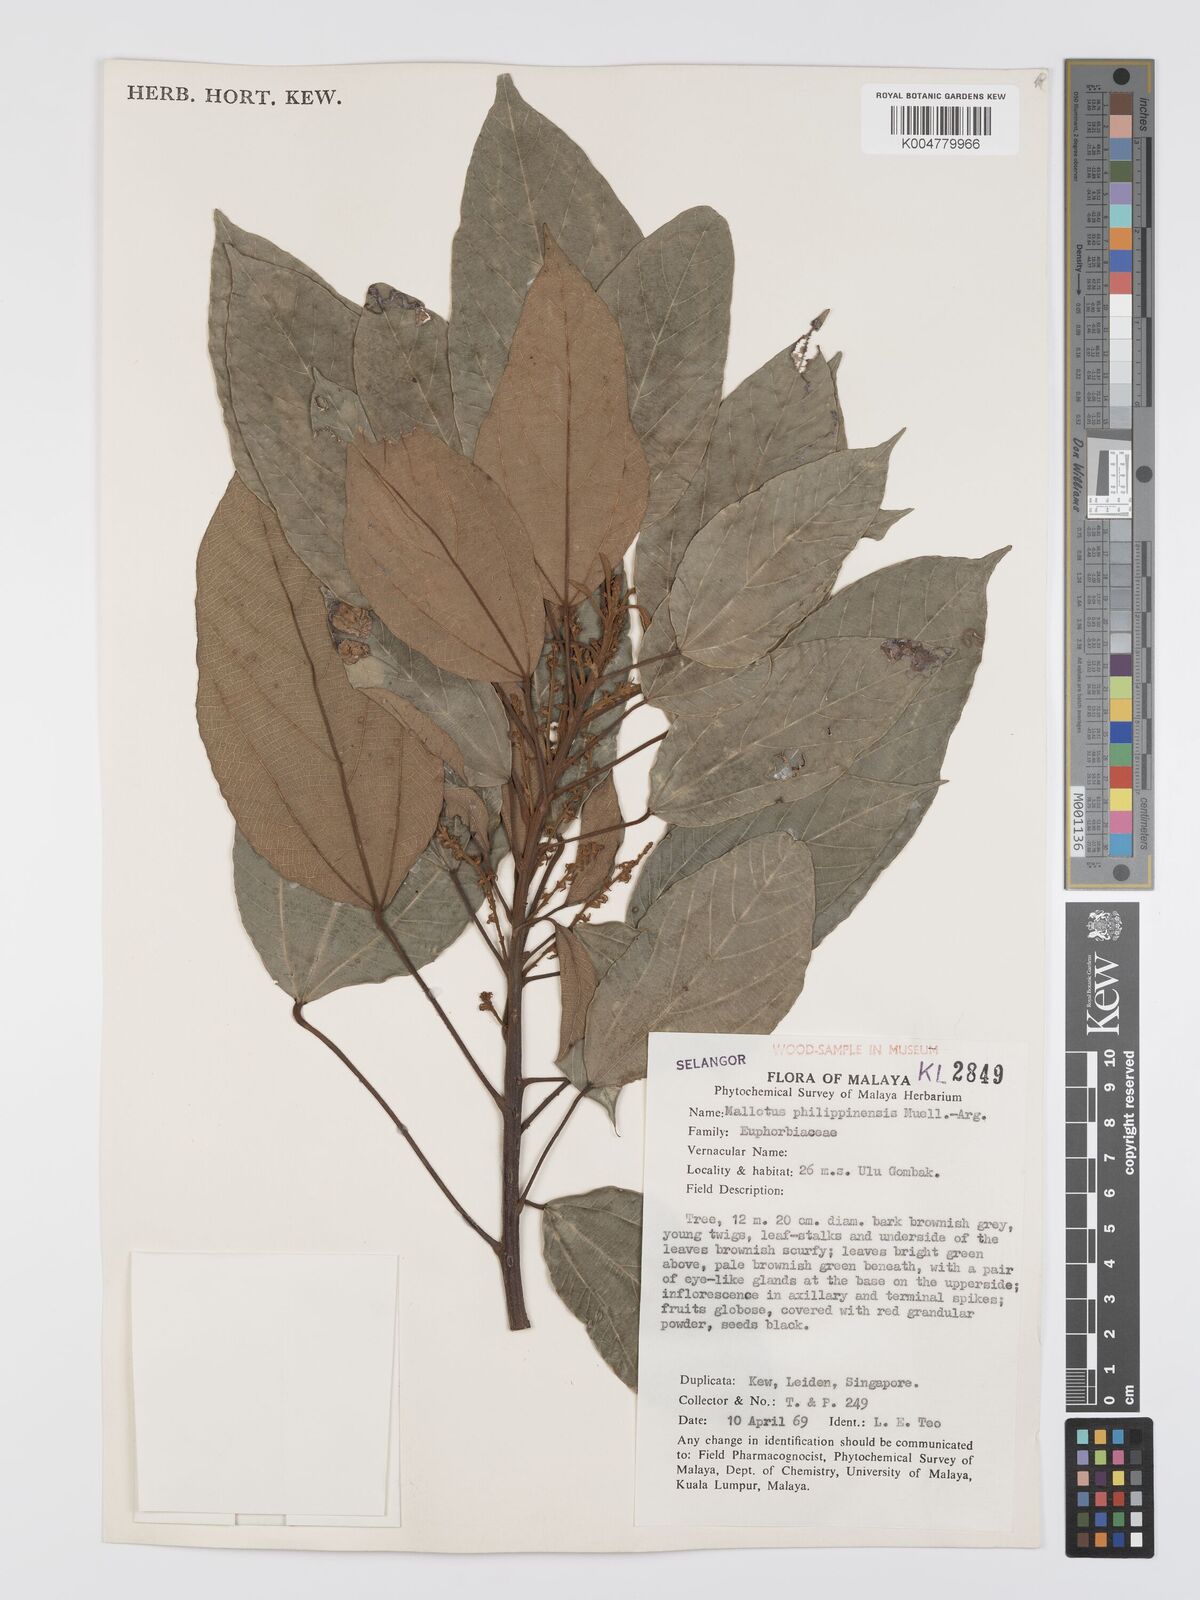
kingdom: Plantae
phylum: Tracheophyta
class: Magnoliopsida
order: Malpighiales
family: Euphorbiaceae
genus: Mallotus
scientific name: Mallotus philippensis
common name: Kamala tree
